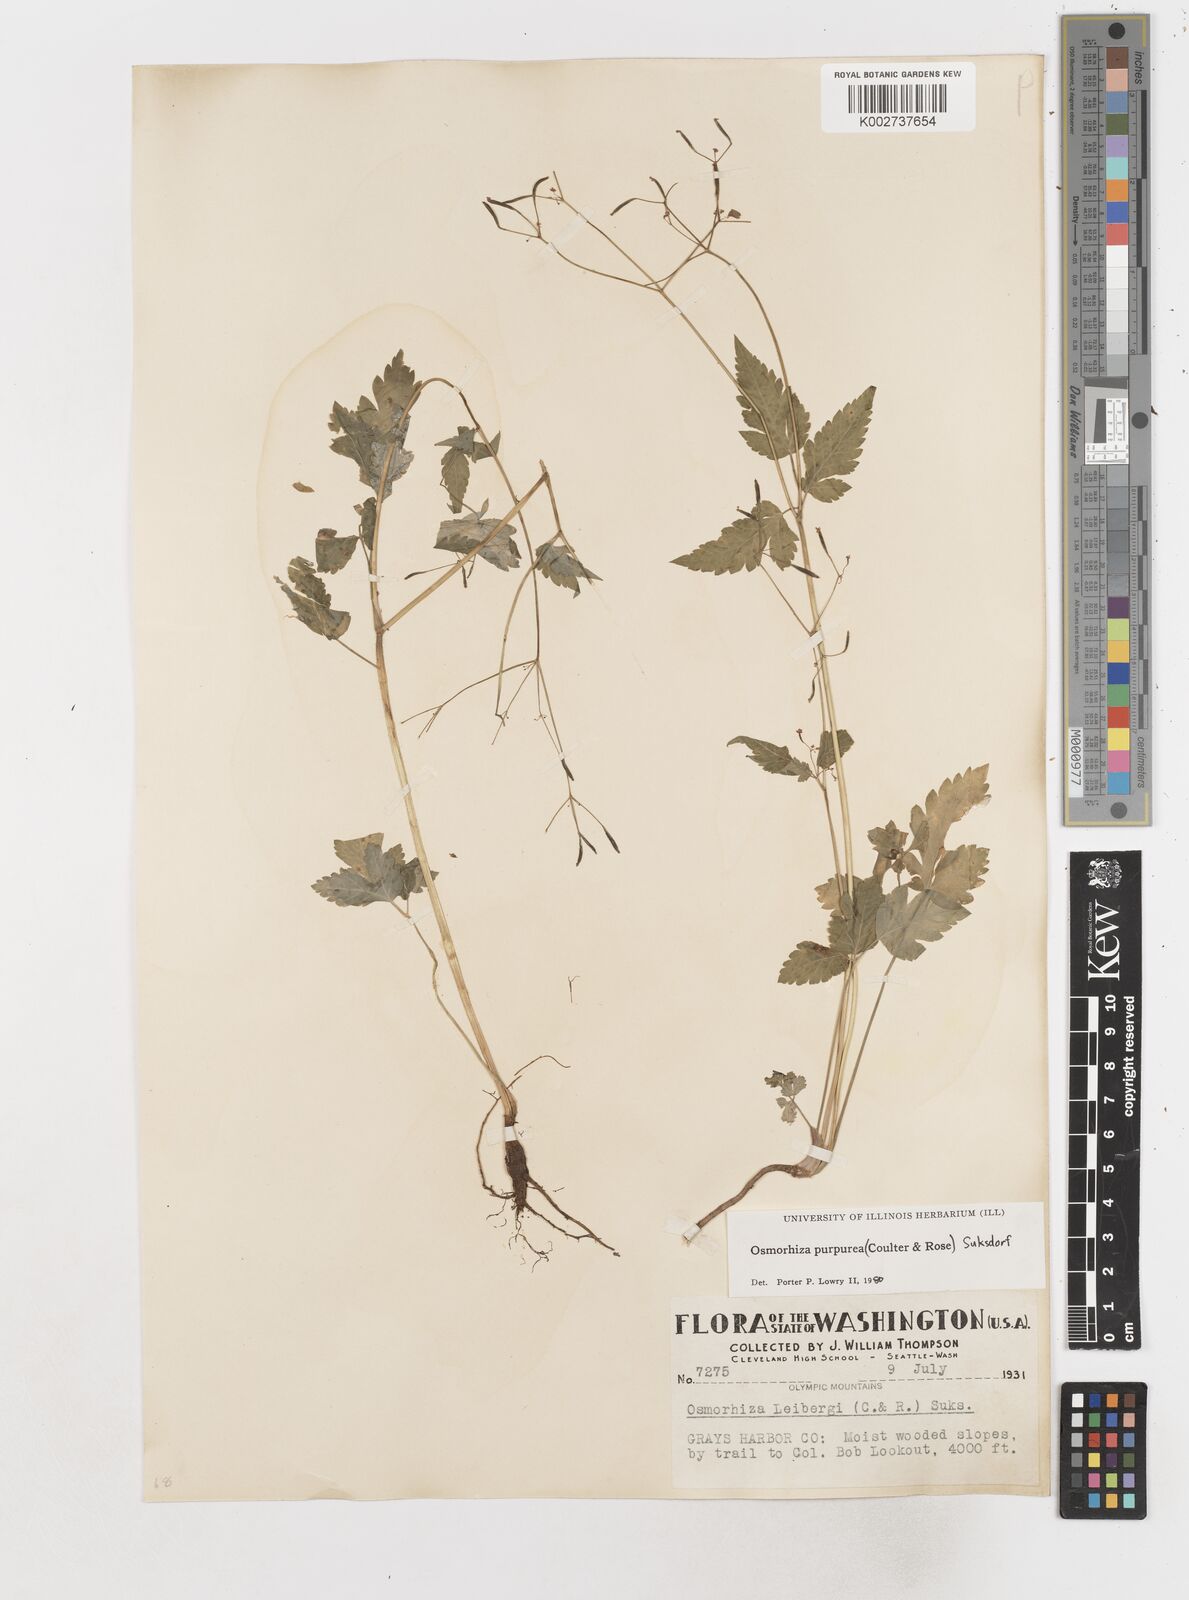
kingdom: Plantae
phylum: Tracheophyta
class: Magnoliopsida
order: Apiales
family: Apiaceae
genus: Osmorhiza
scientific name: Osmorhiza purpurea
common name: Purple sweet cicely
